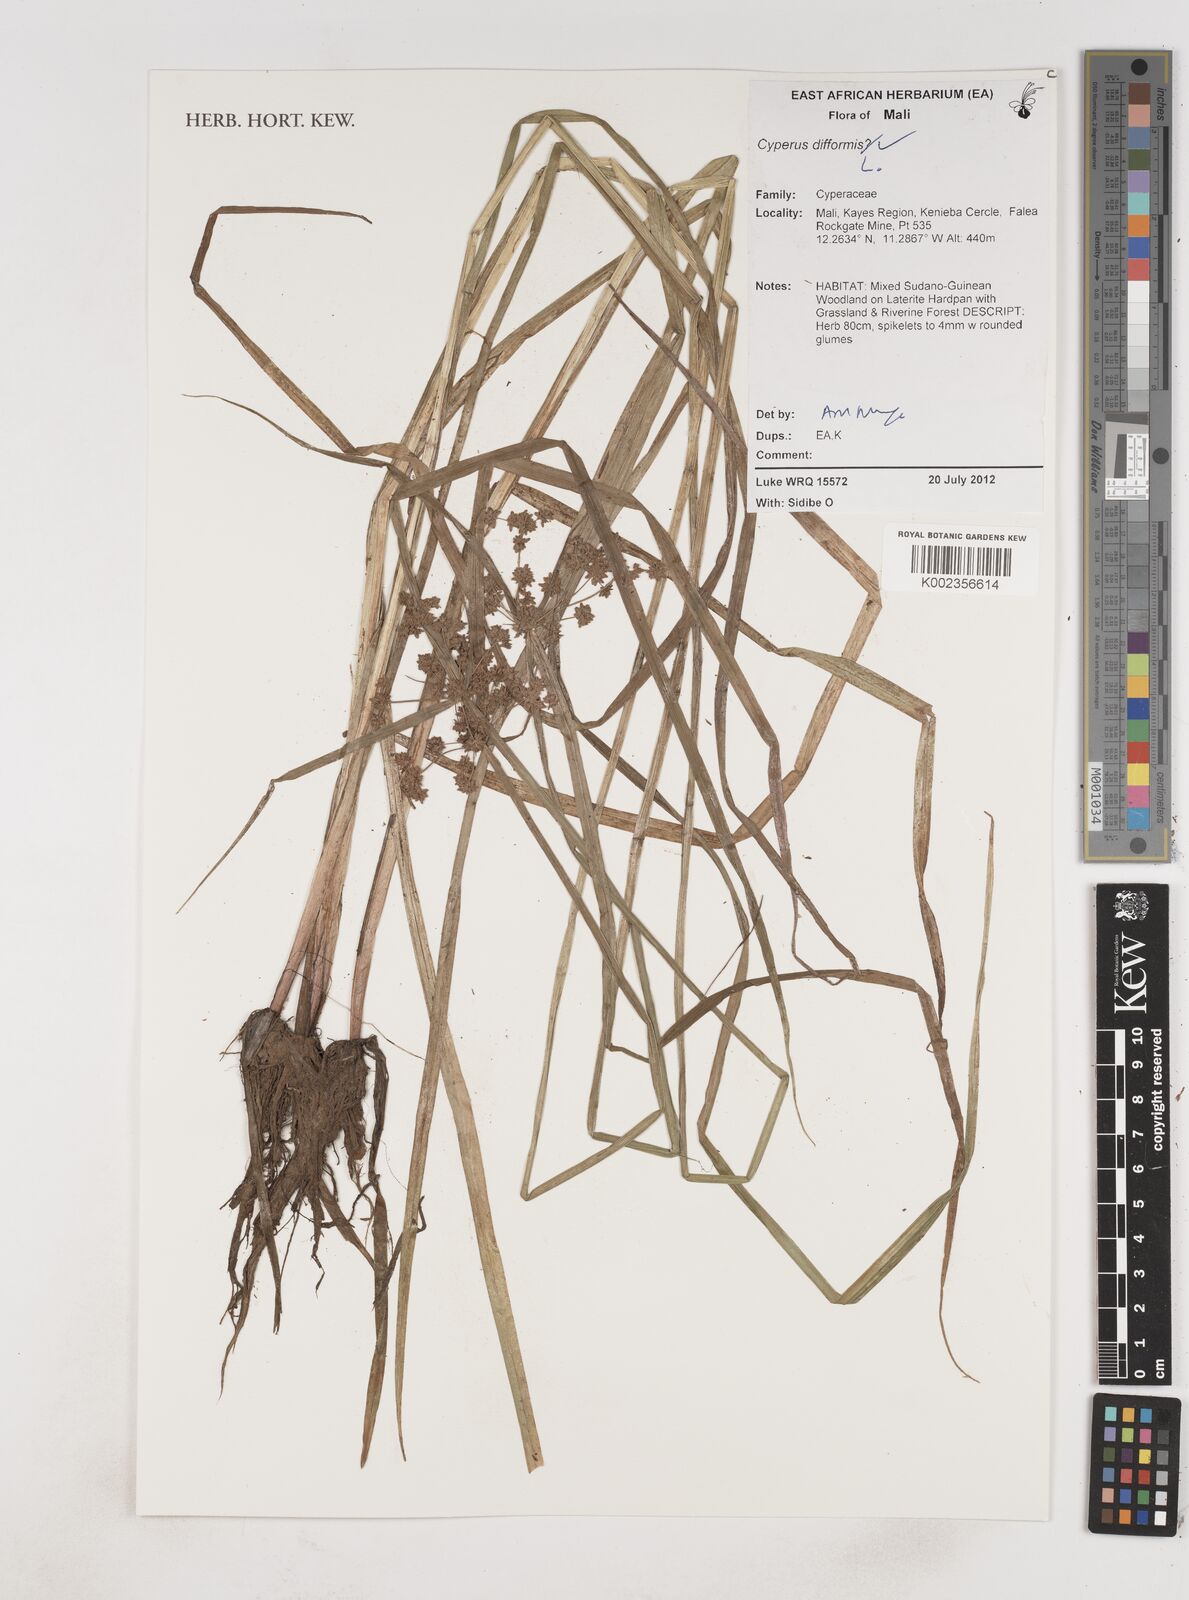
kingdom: Plantae
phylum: Tracheophyta
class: Liliopsida
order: Poales
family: Cyperaceae
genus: Cyperus
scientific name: Cyperus difformis
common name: Variable flatsedge
